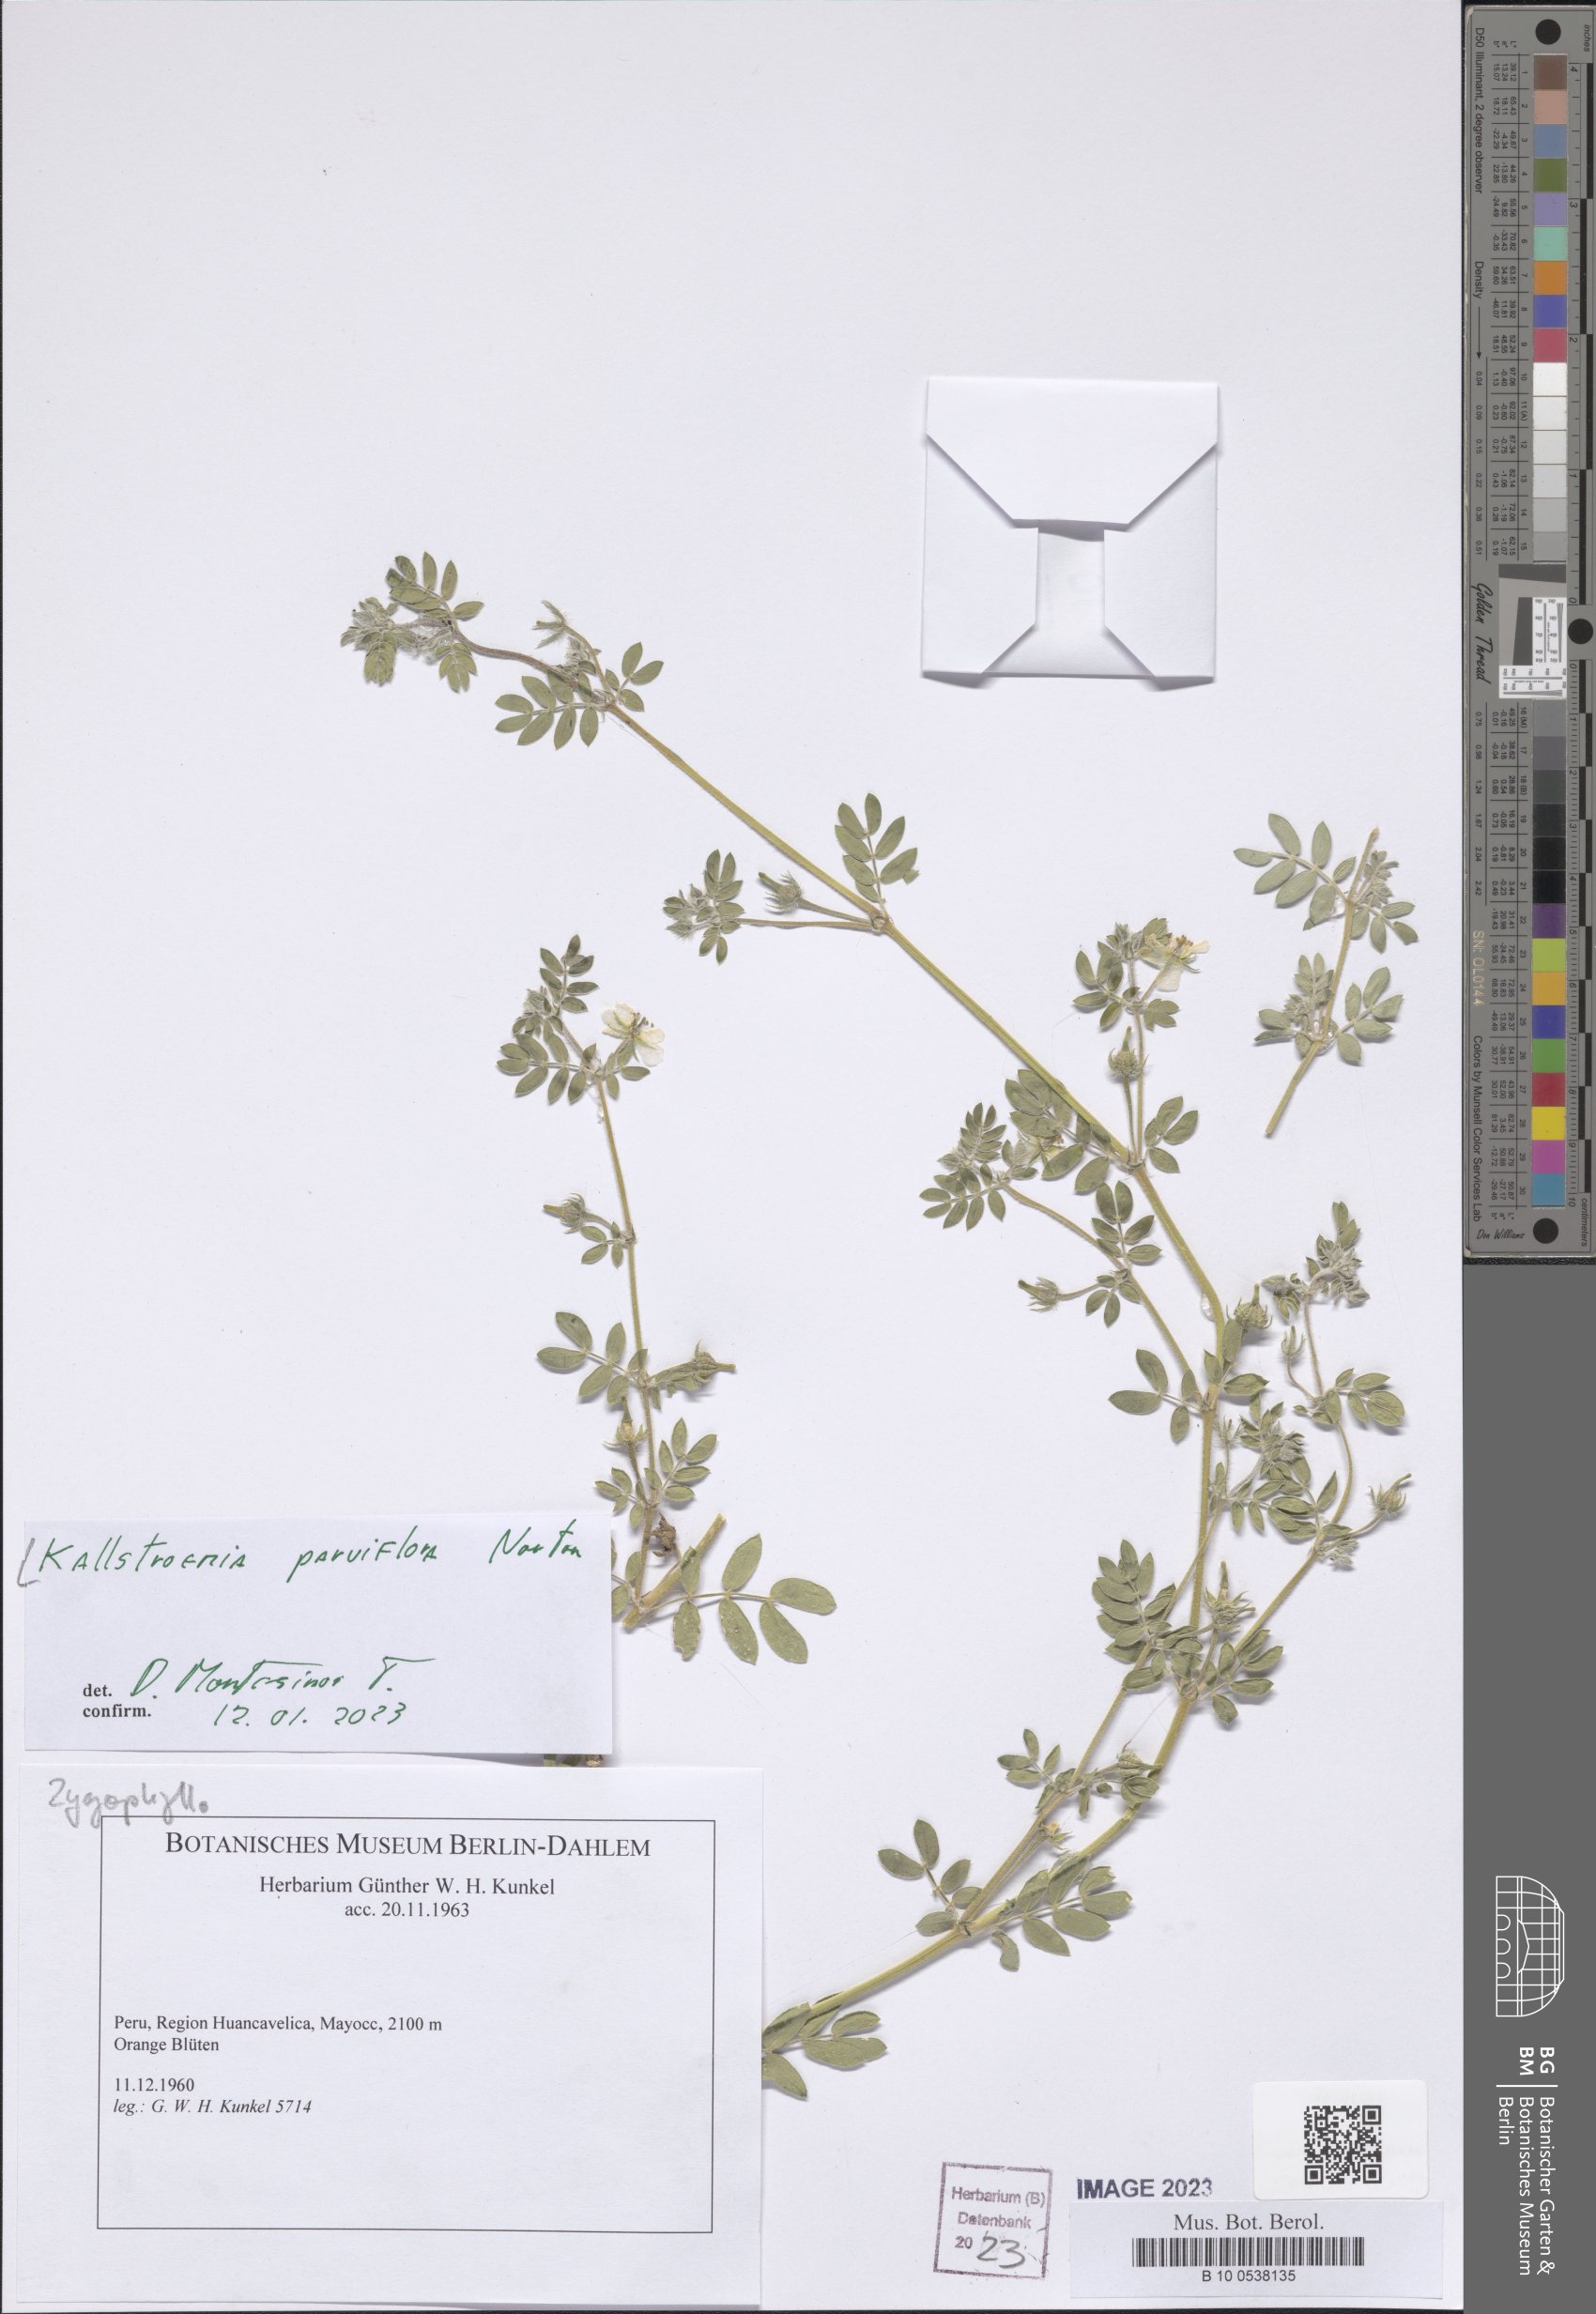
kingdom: Plantae
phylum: Tracheophyta
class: Magnoliopsida
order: Zygophyllales
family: Zygophyllaceae
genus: Kallstroemia
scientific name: Kallstroemia parviflora
